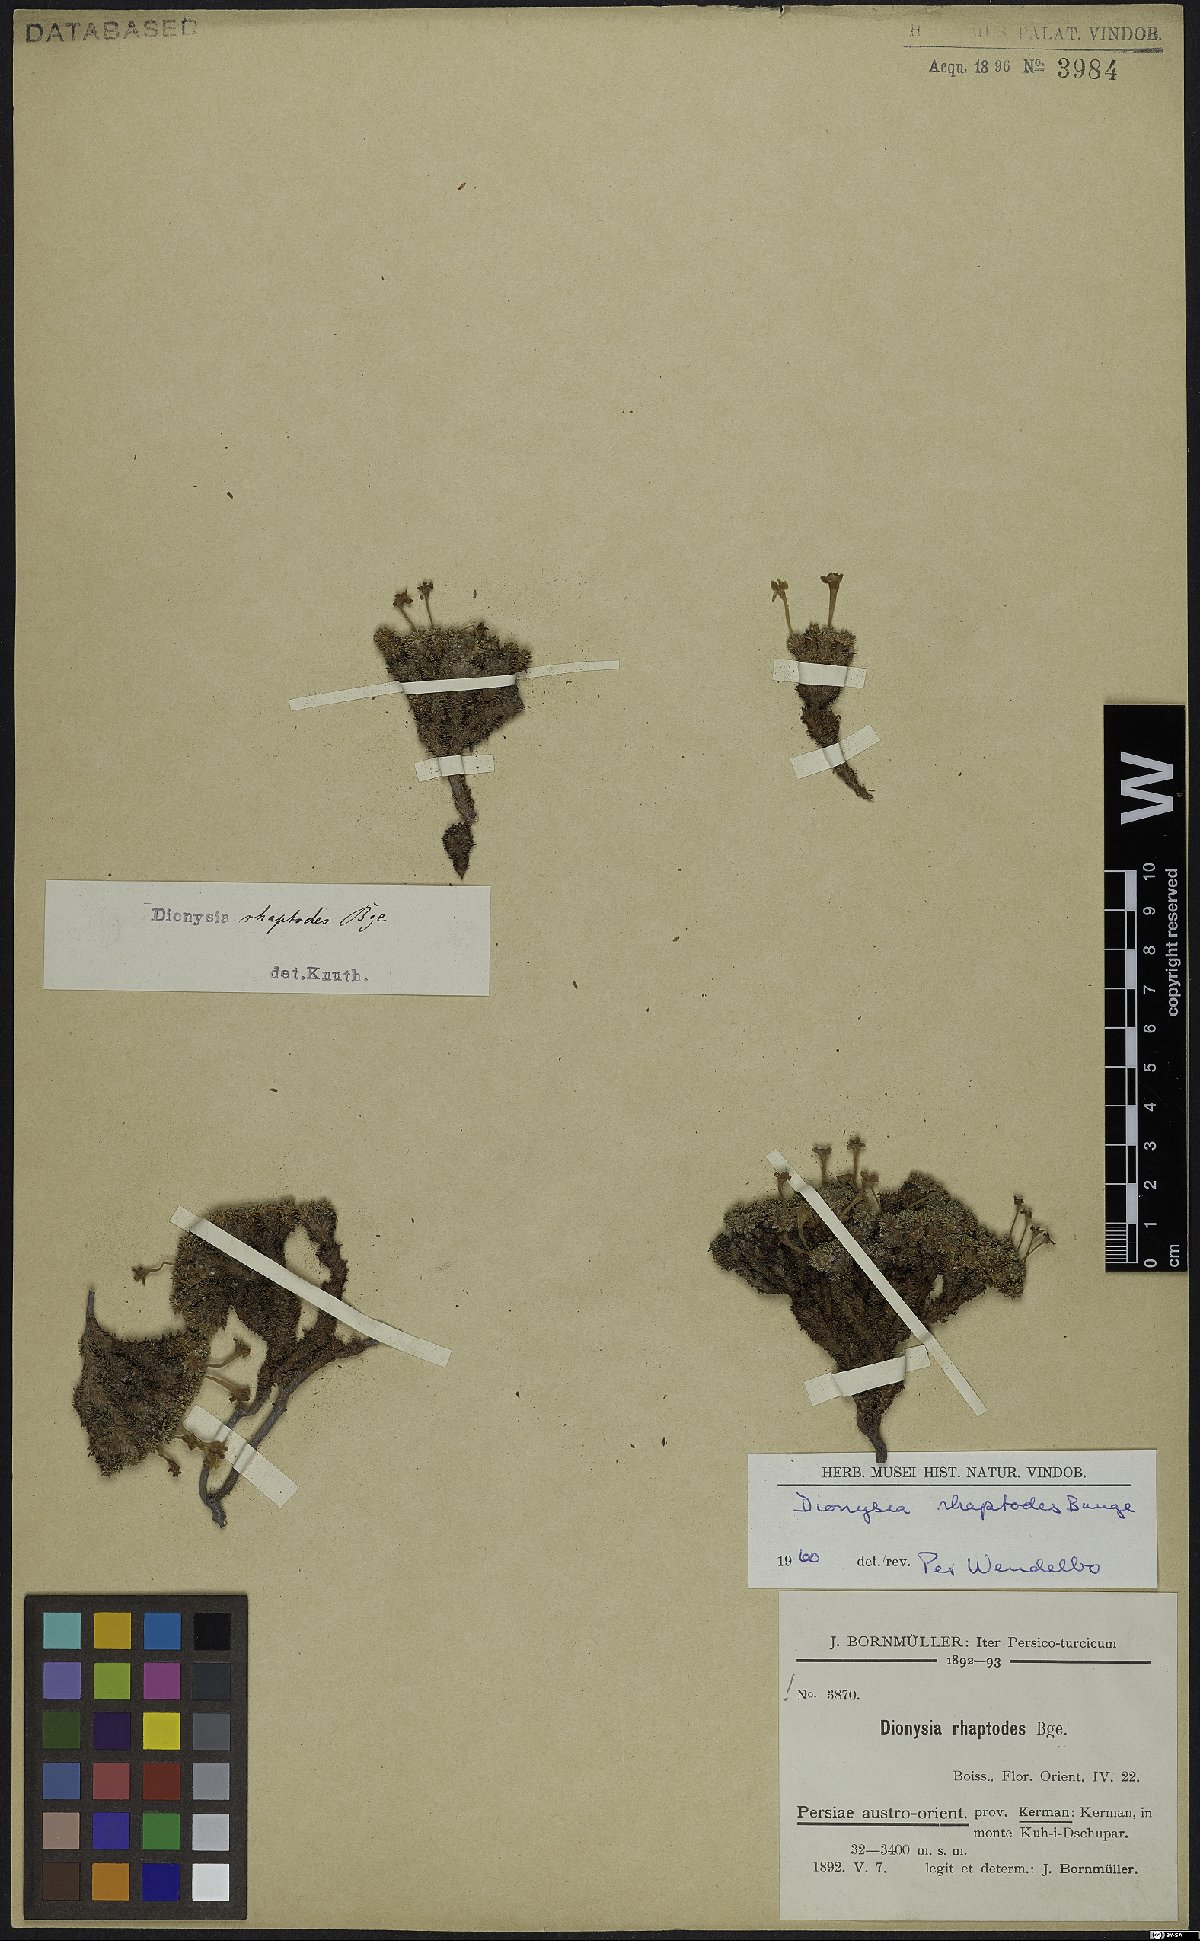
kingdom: Plantae
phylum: Tracheophyta
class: Magnoliopsida
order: Ericales
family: Primulaceae
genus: Dionysia
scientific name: Dionysia rhaptodes
